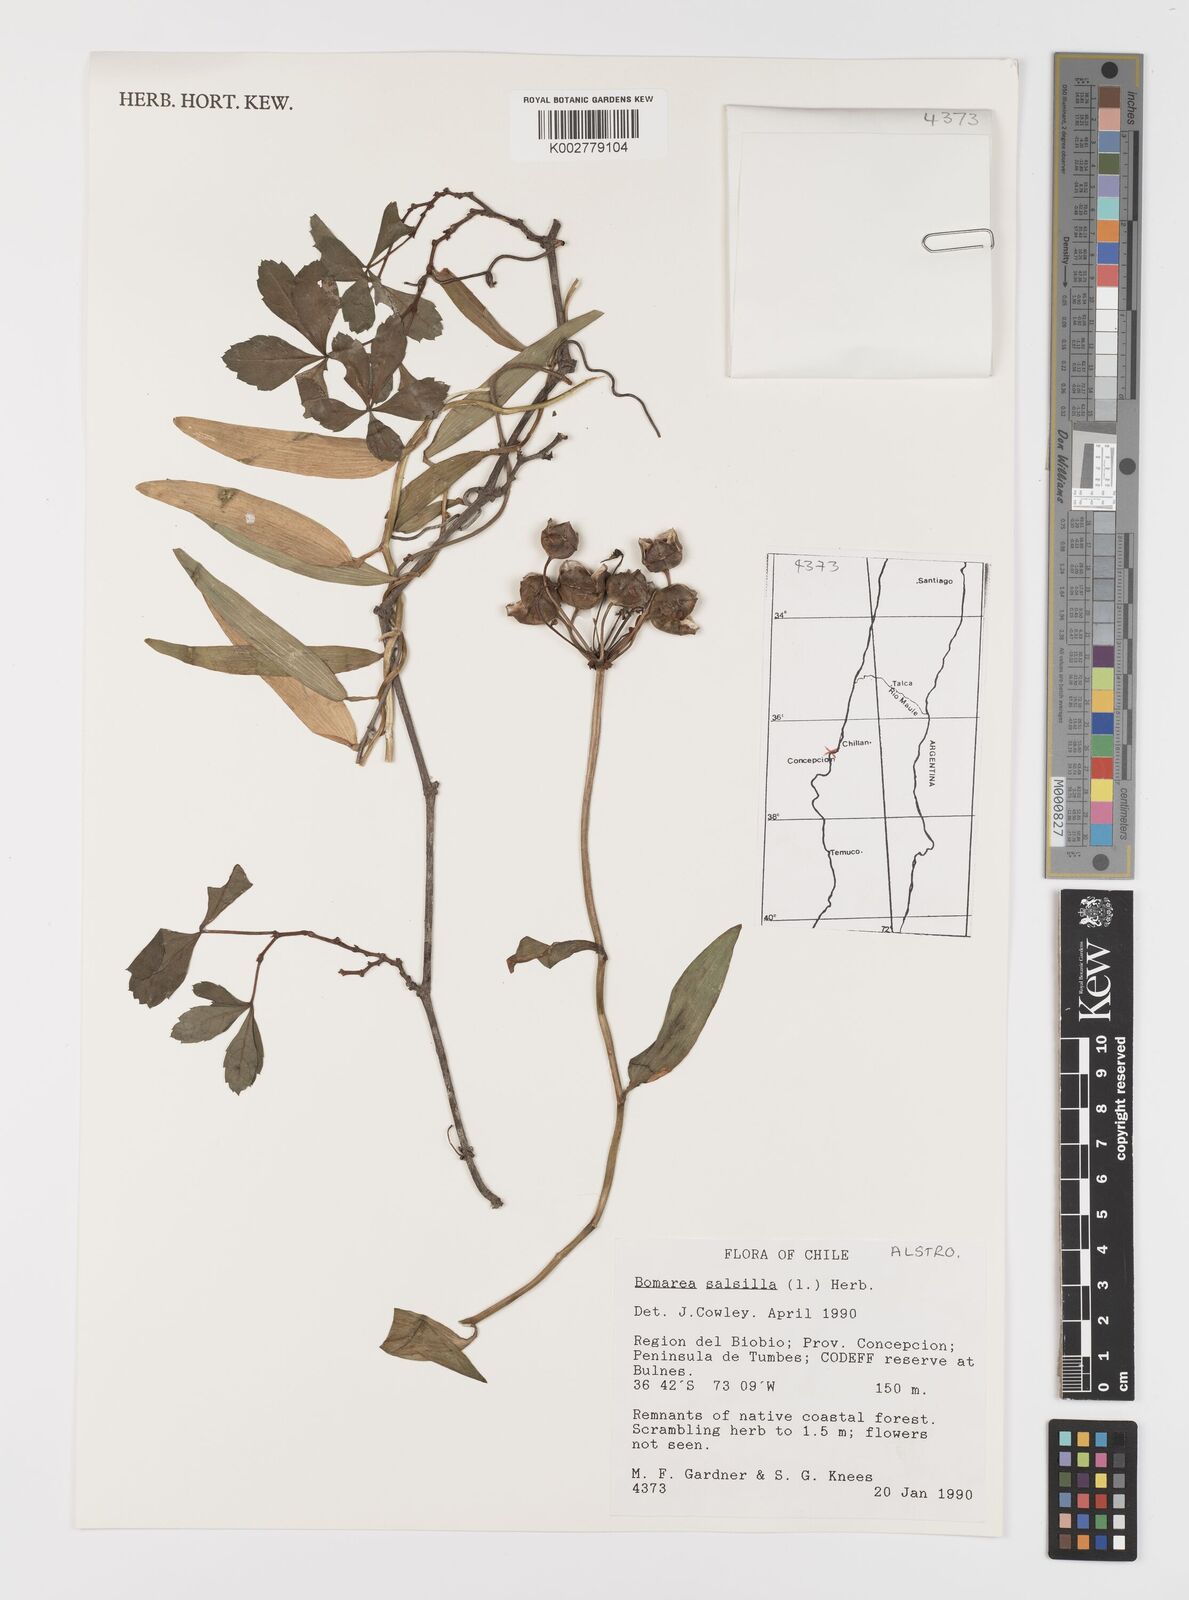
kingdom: Plantae
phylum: Tracheophyta
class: Liliopsida
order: Liliales
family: Alstroemeriaceae
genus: Bomarea
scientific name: Bomarea edulis
